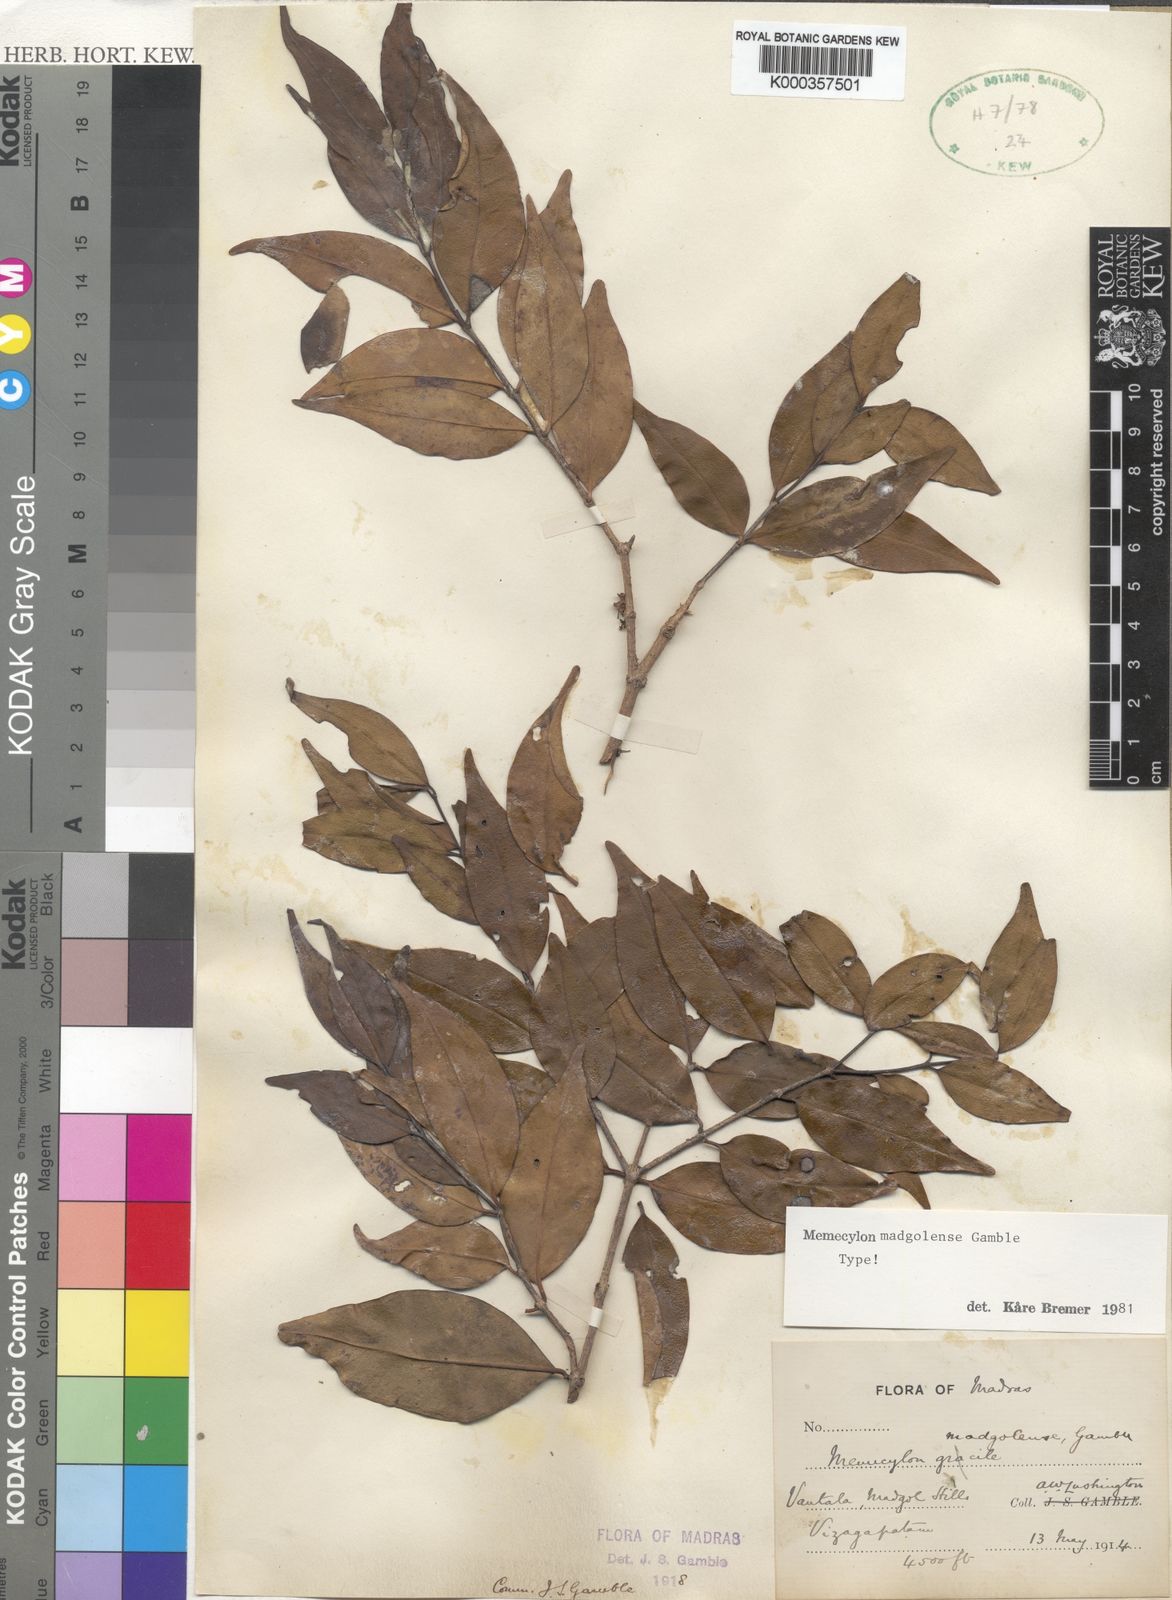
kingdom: Plantae
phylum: Tracheophyta
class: Magnoliopsida
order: Myrtales
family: Melastomataceae
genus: Memecylon
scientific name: Memecylon madgolense
